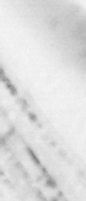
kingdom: Animalia
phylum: Chordata
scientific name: Chordata
